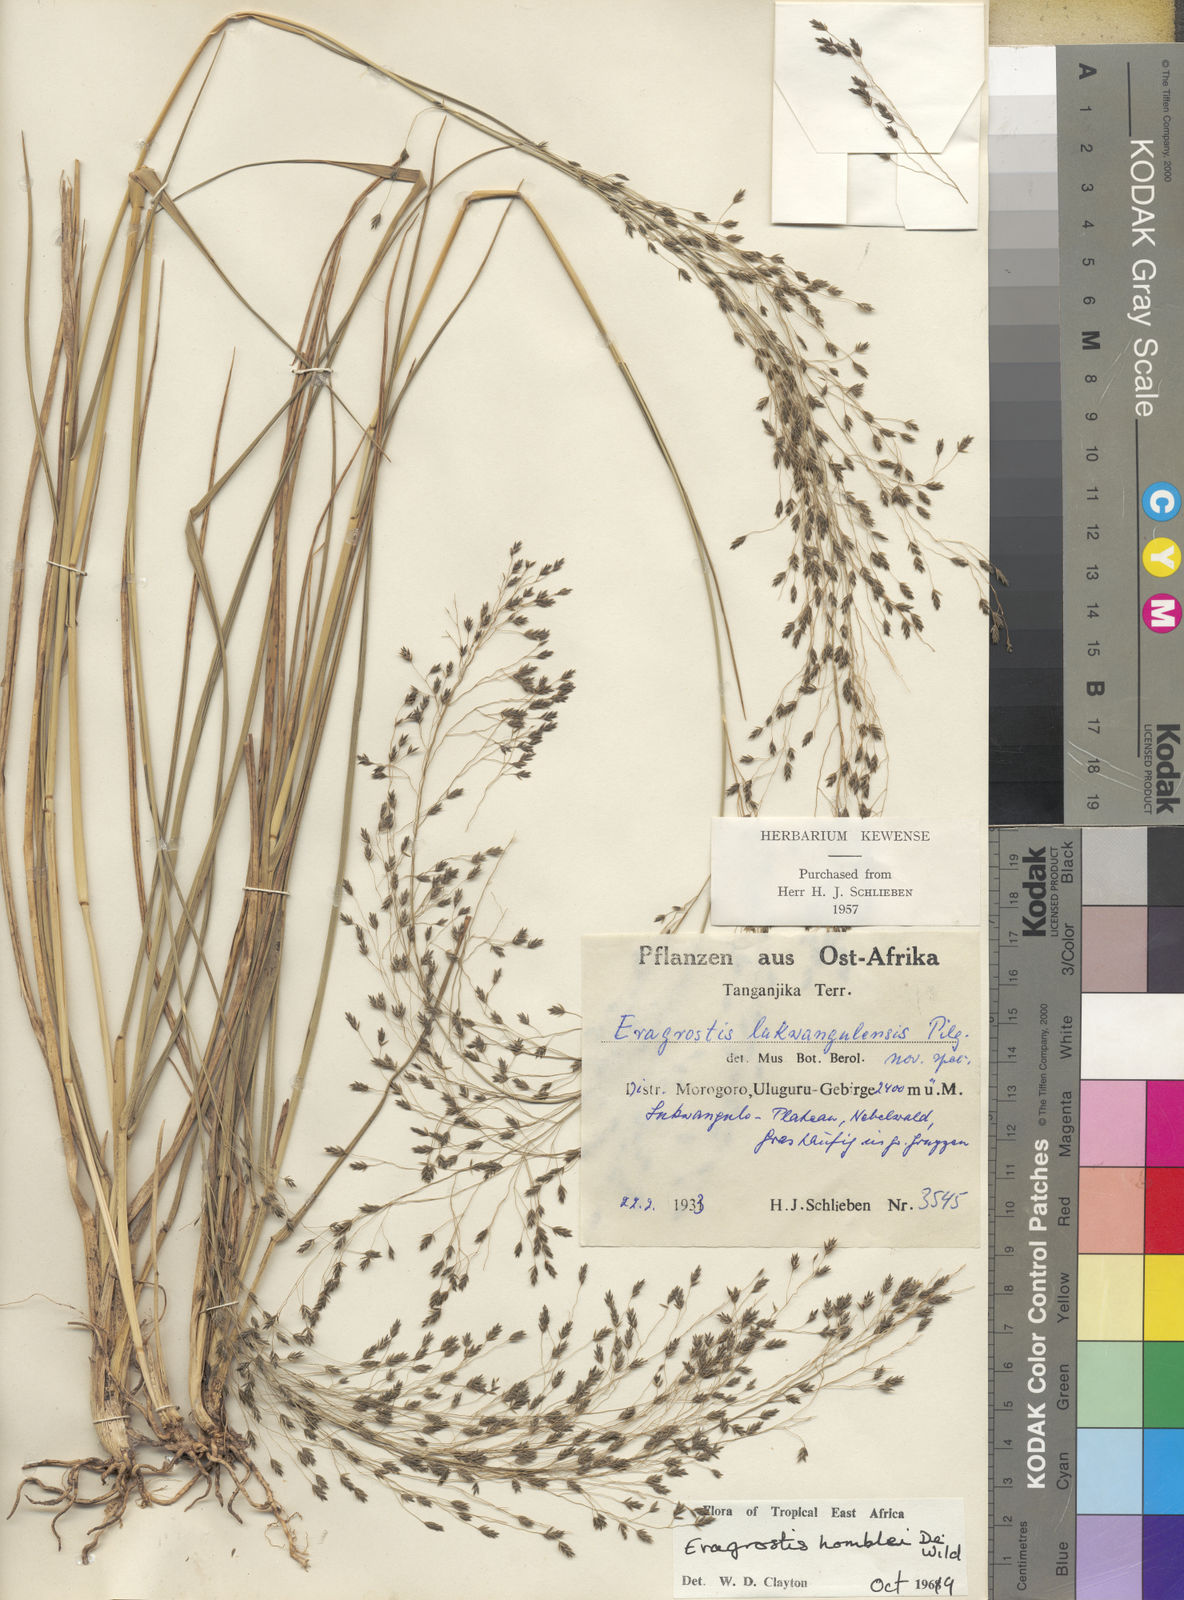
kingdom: Plantae
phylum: Tracheophyta
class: Liliopsida
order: Poales
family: Poaceae
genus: Eragrostis
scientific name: Eragrostis homblei
